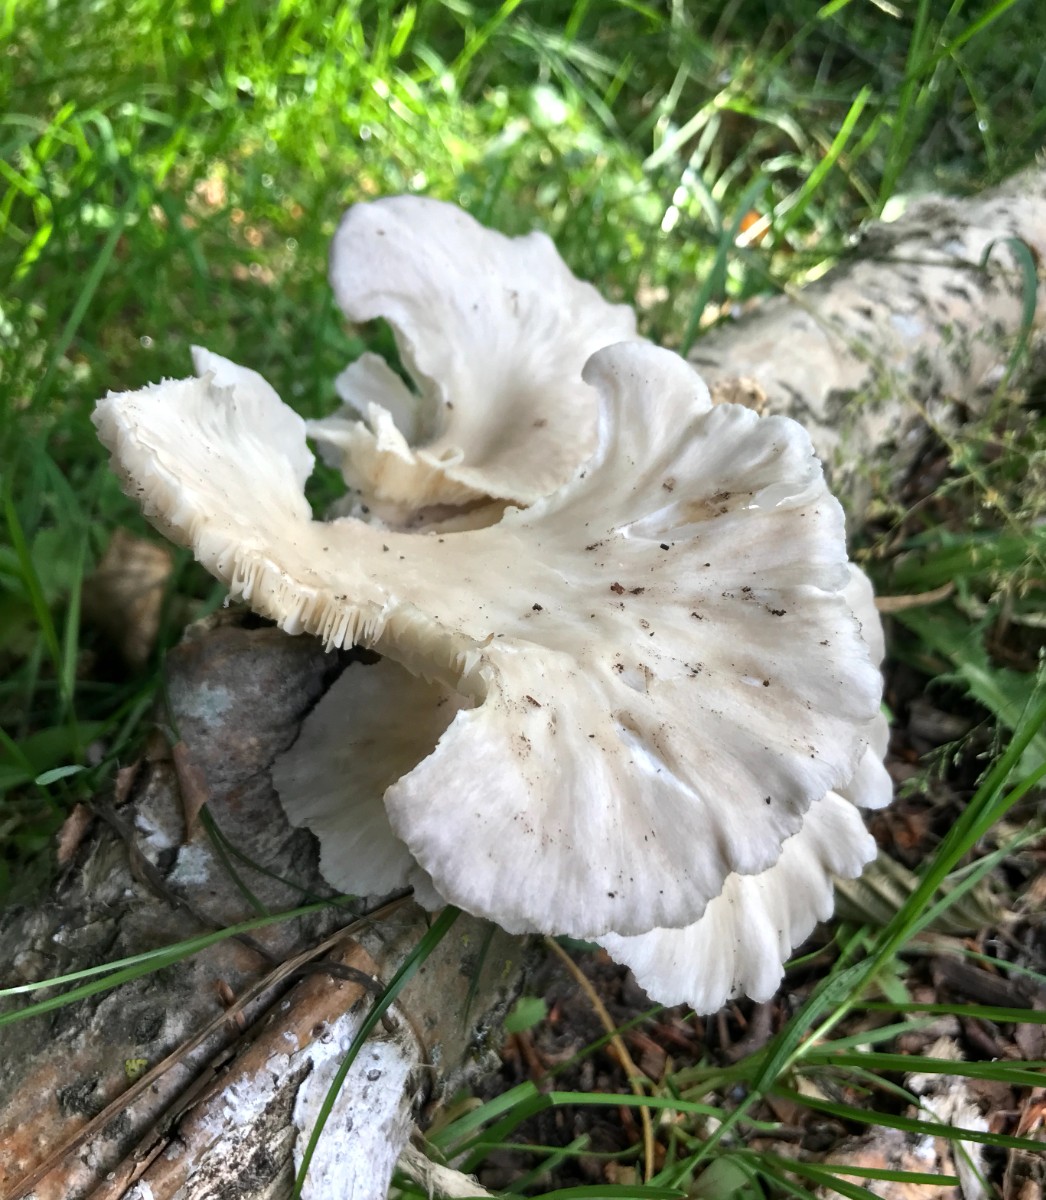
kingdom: Fungi
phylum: Basidiomycota
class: Agaricomycetes
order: Agaricales
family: Pleurotaceae
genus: Pleurotus
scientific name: Pleurotus pulmonarius
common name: sommer-østershat
